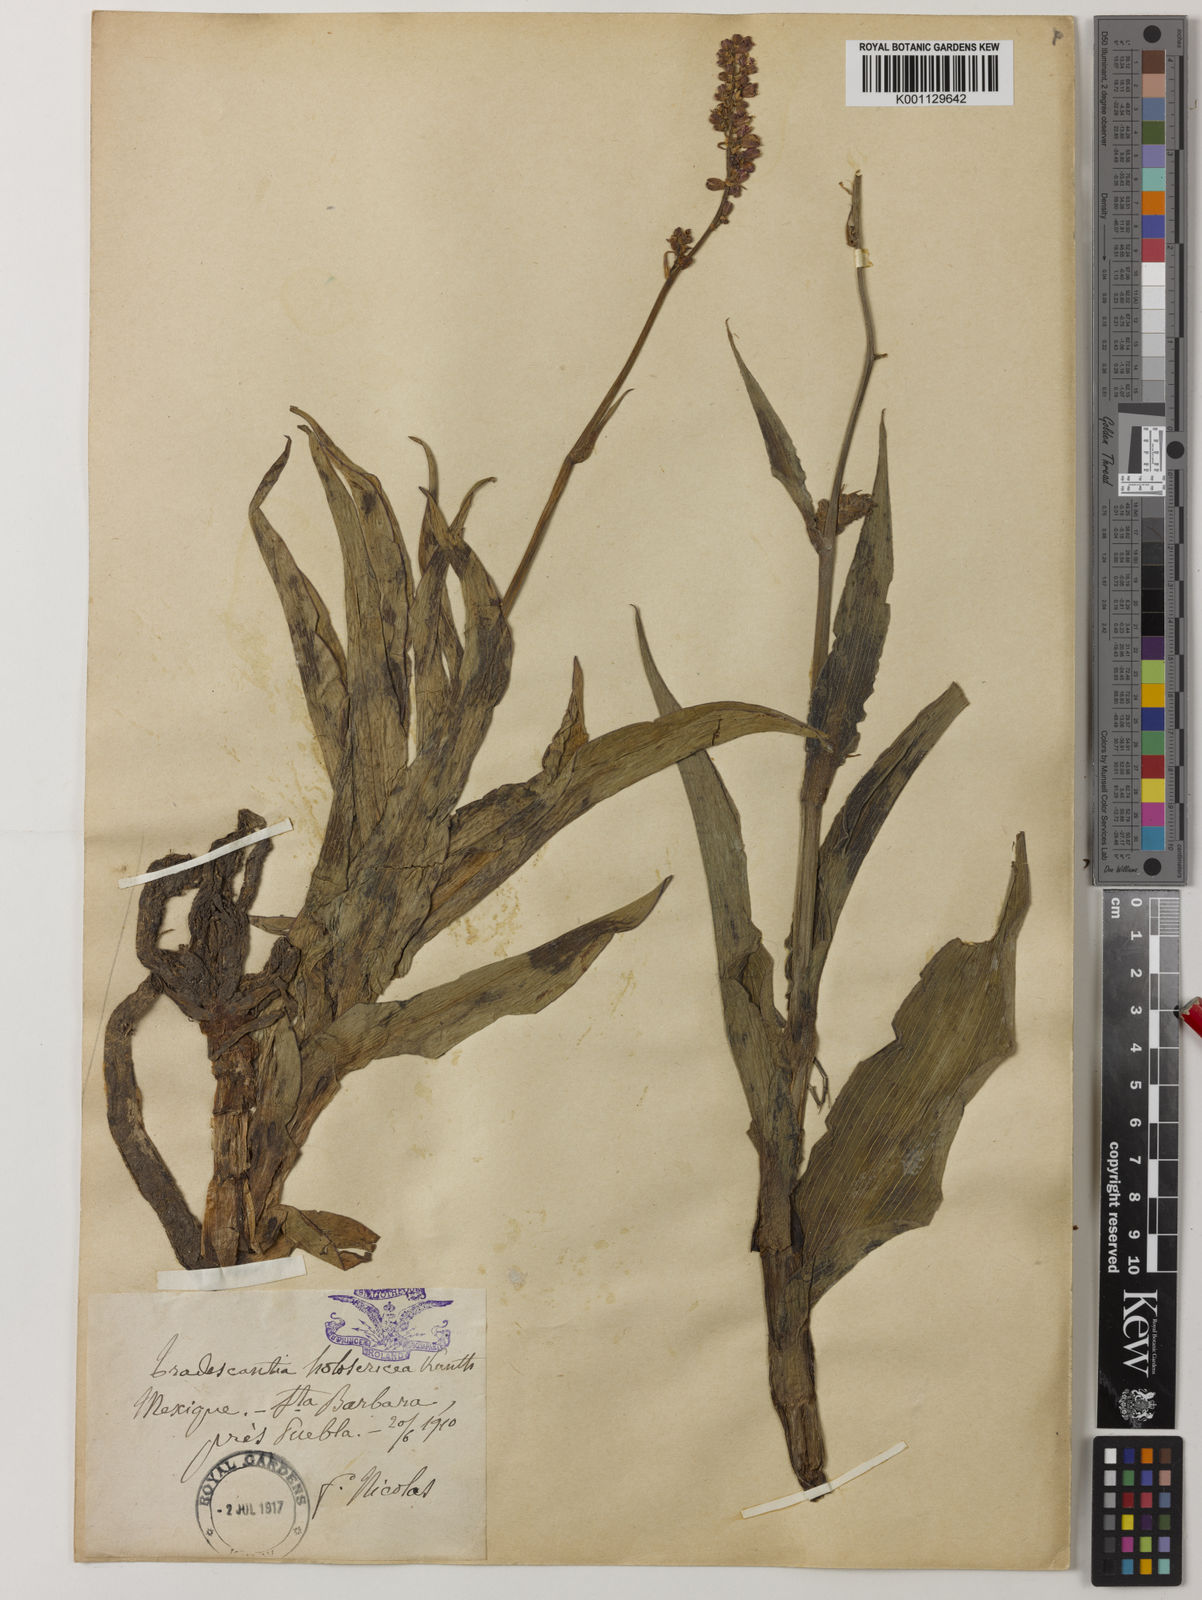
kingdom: Plantae
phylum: Tracheophyta
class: Liliopsida
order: Commelinales
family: Commelinaceae
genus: Thyrsanthemum
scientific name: Thyrsanthemum floribundum
